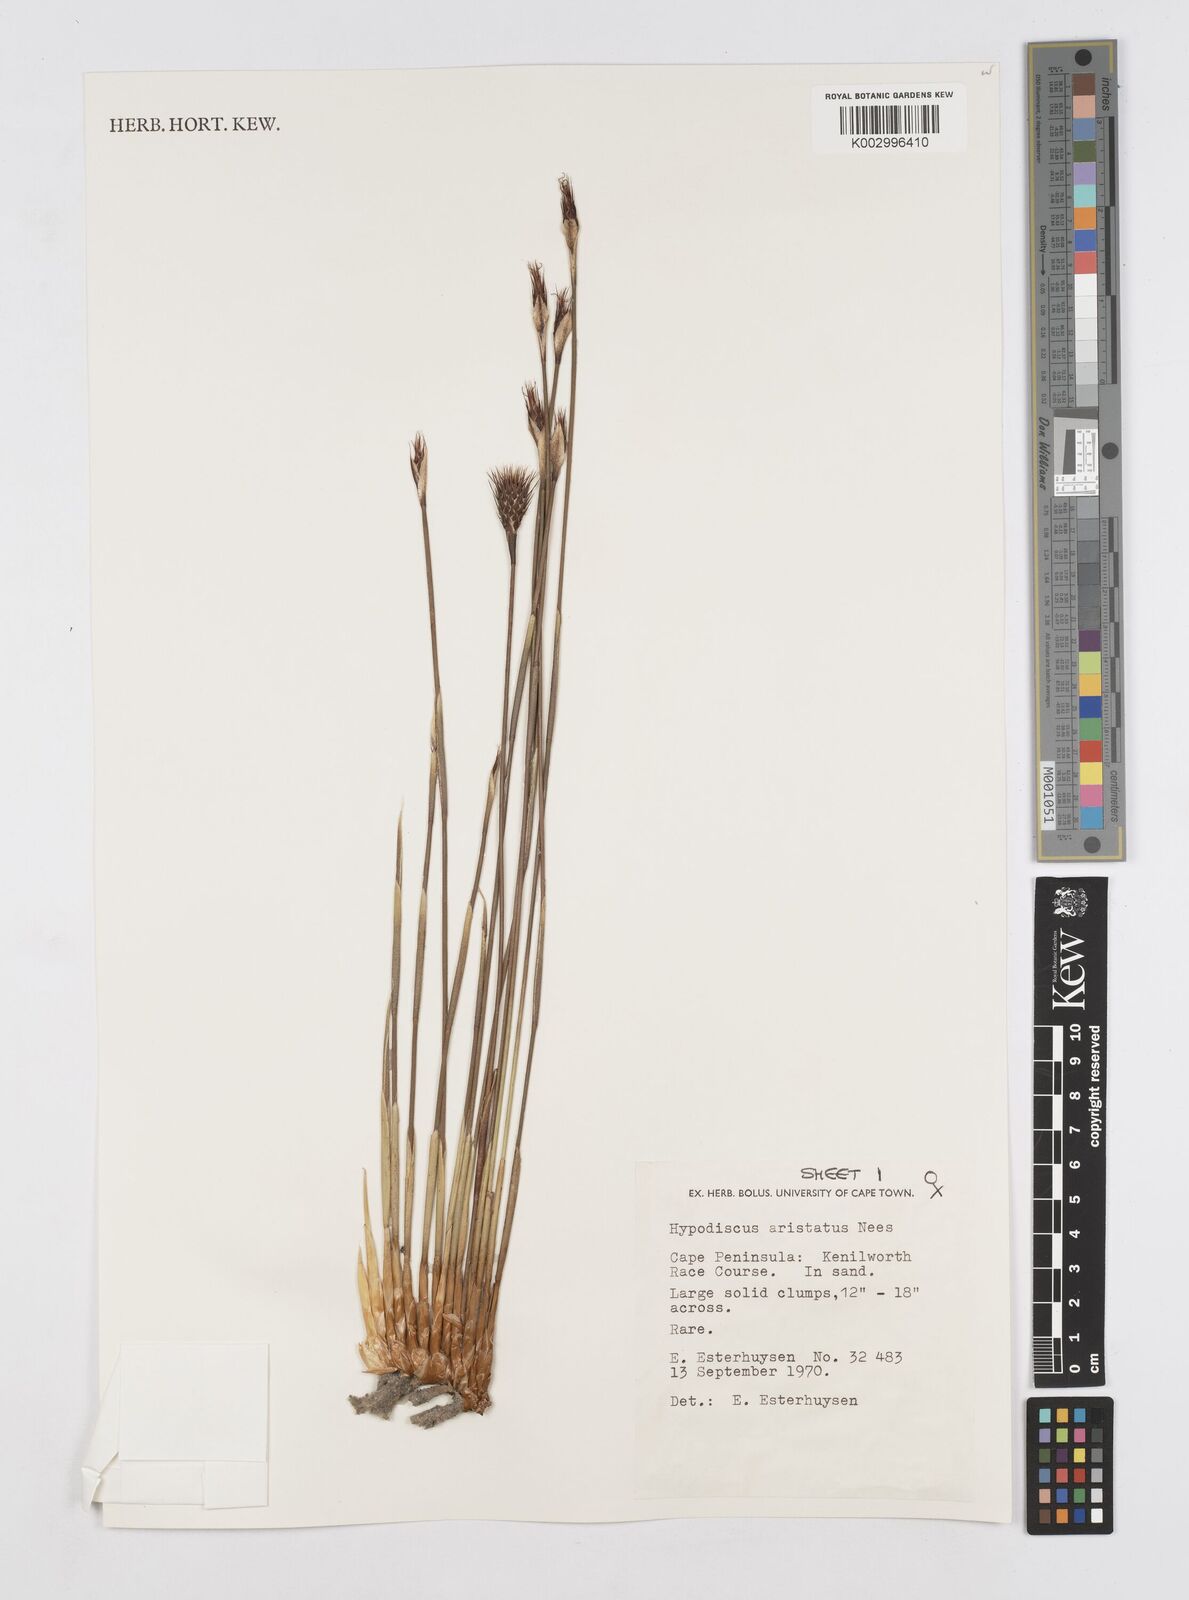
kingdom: Plantae
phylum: Tracheophyta
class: Liliopsida
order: Poales
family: Restionaceae
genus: Hypodiscus
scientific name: Hypodiscus aristatus
